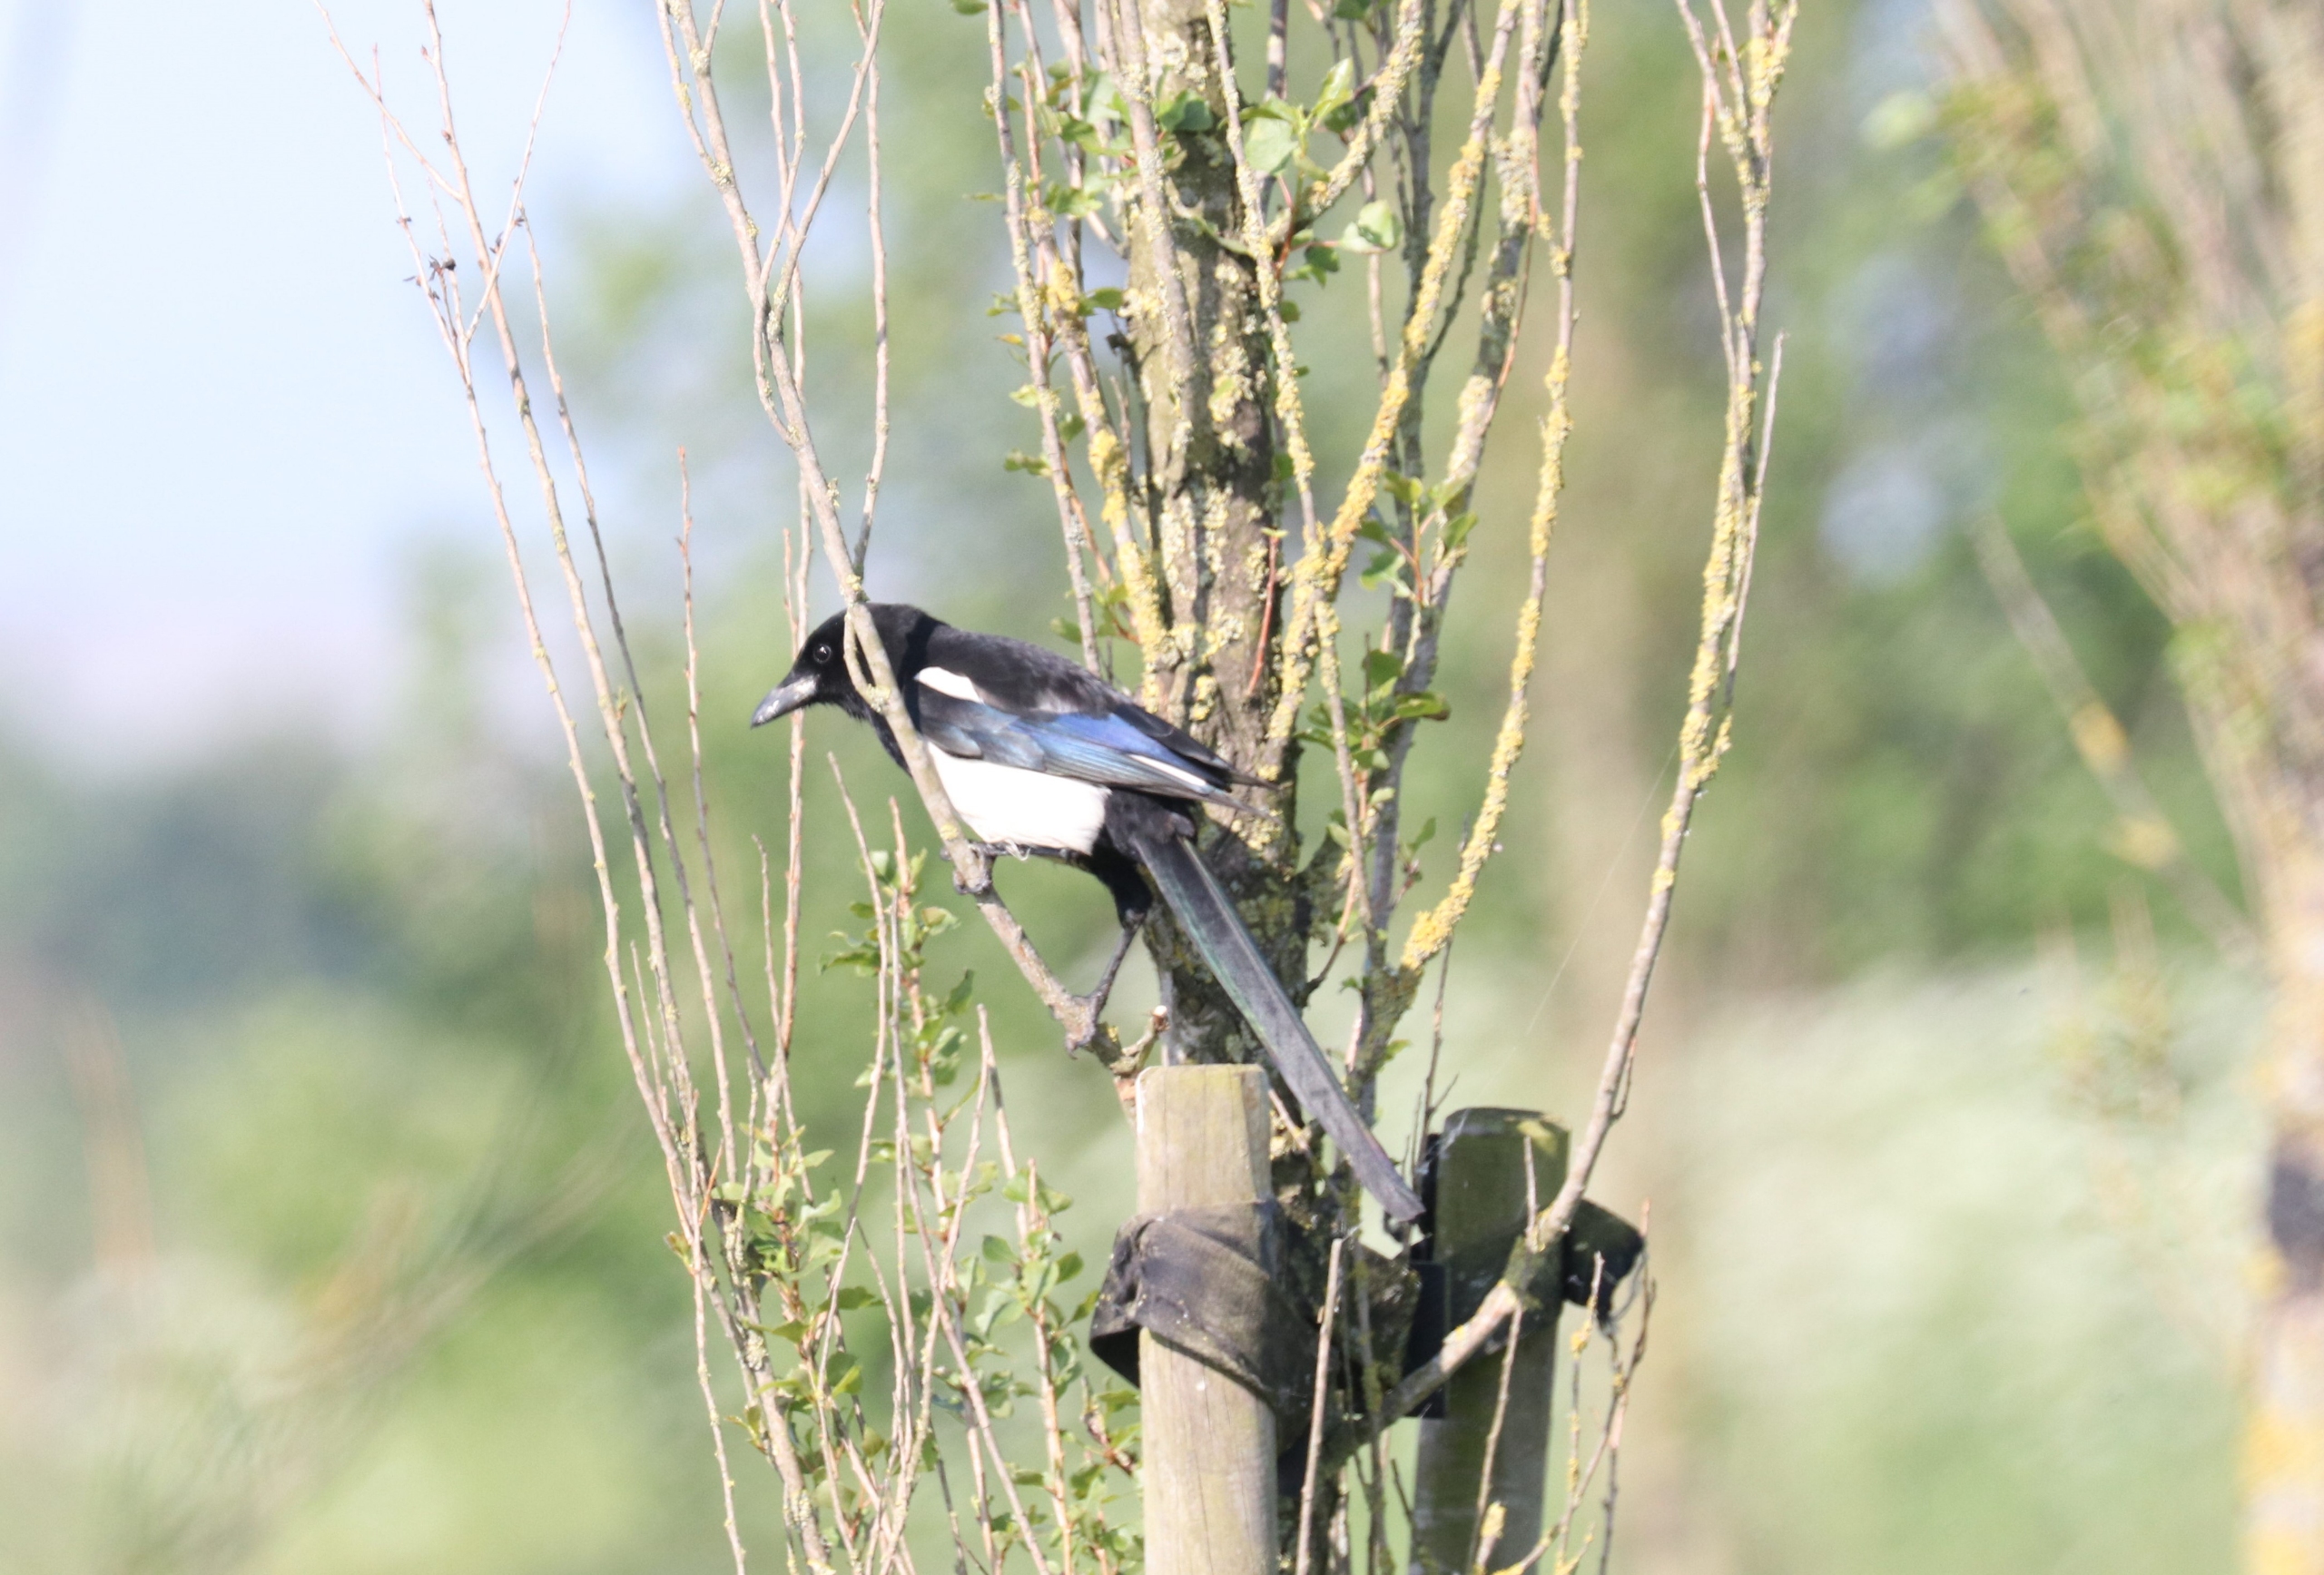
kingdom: Animalia
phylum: Chordata
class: Aves
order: Passeriformes
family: Corvidae
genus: Pica
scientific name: Pica pica
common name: Husskade
